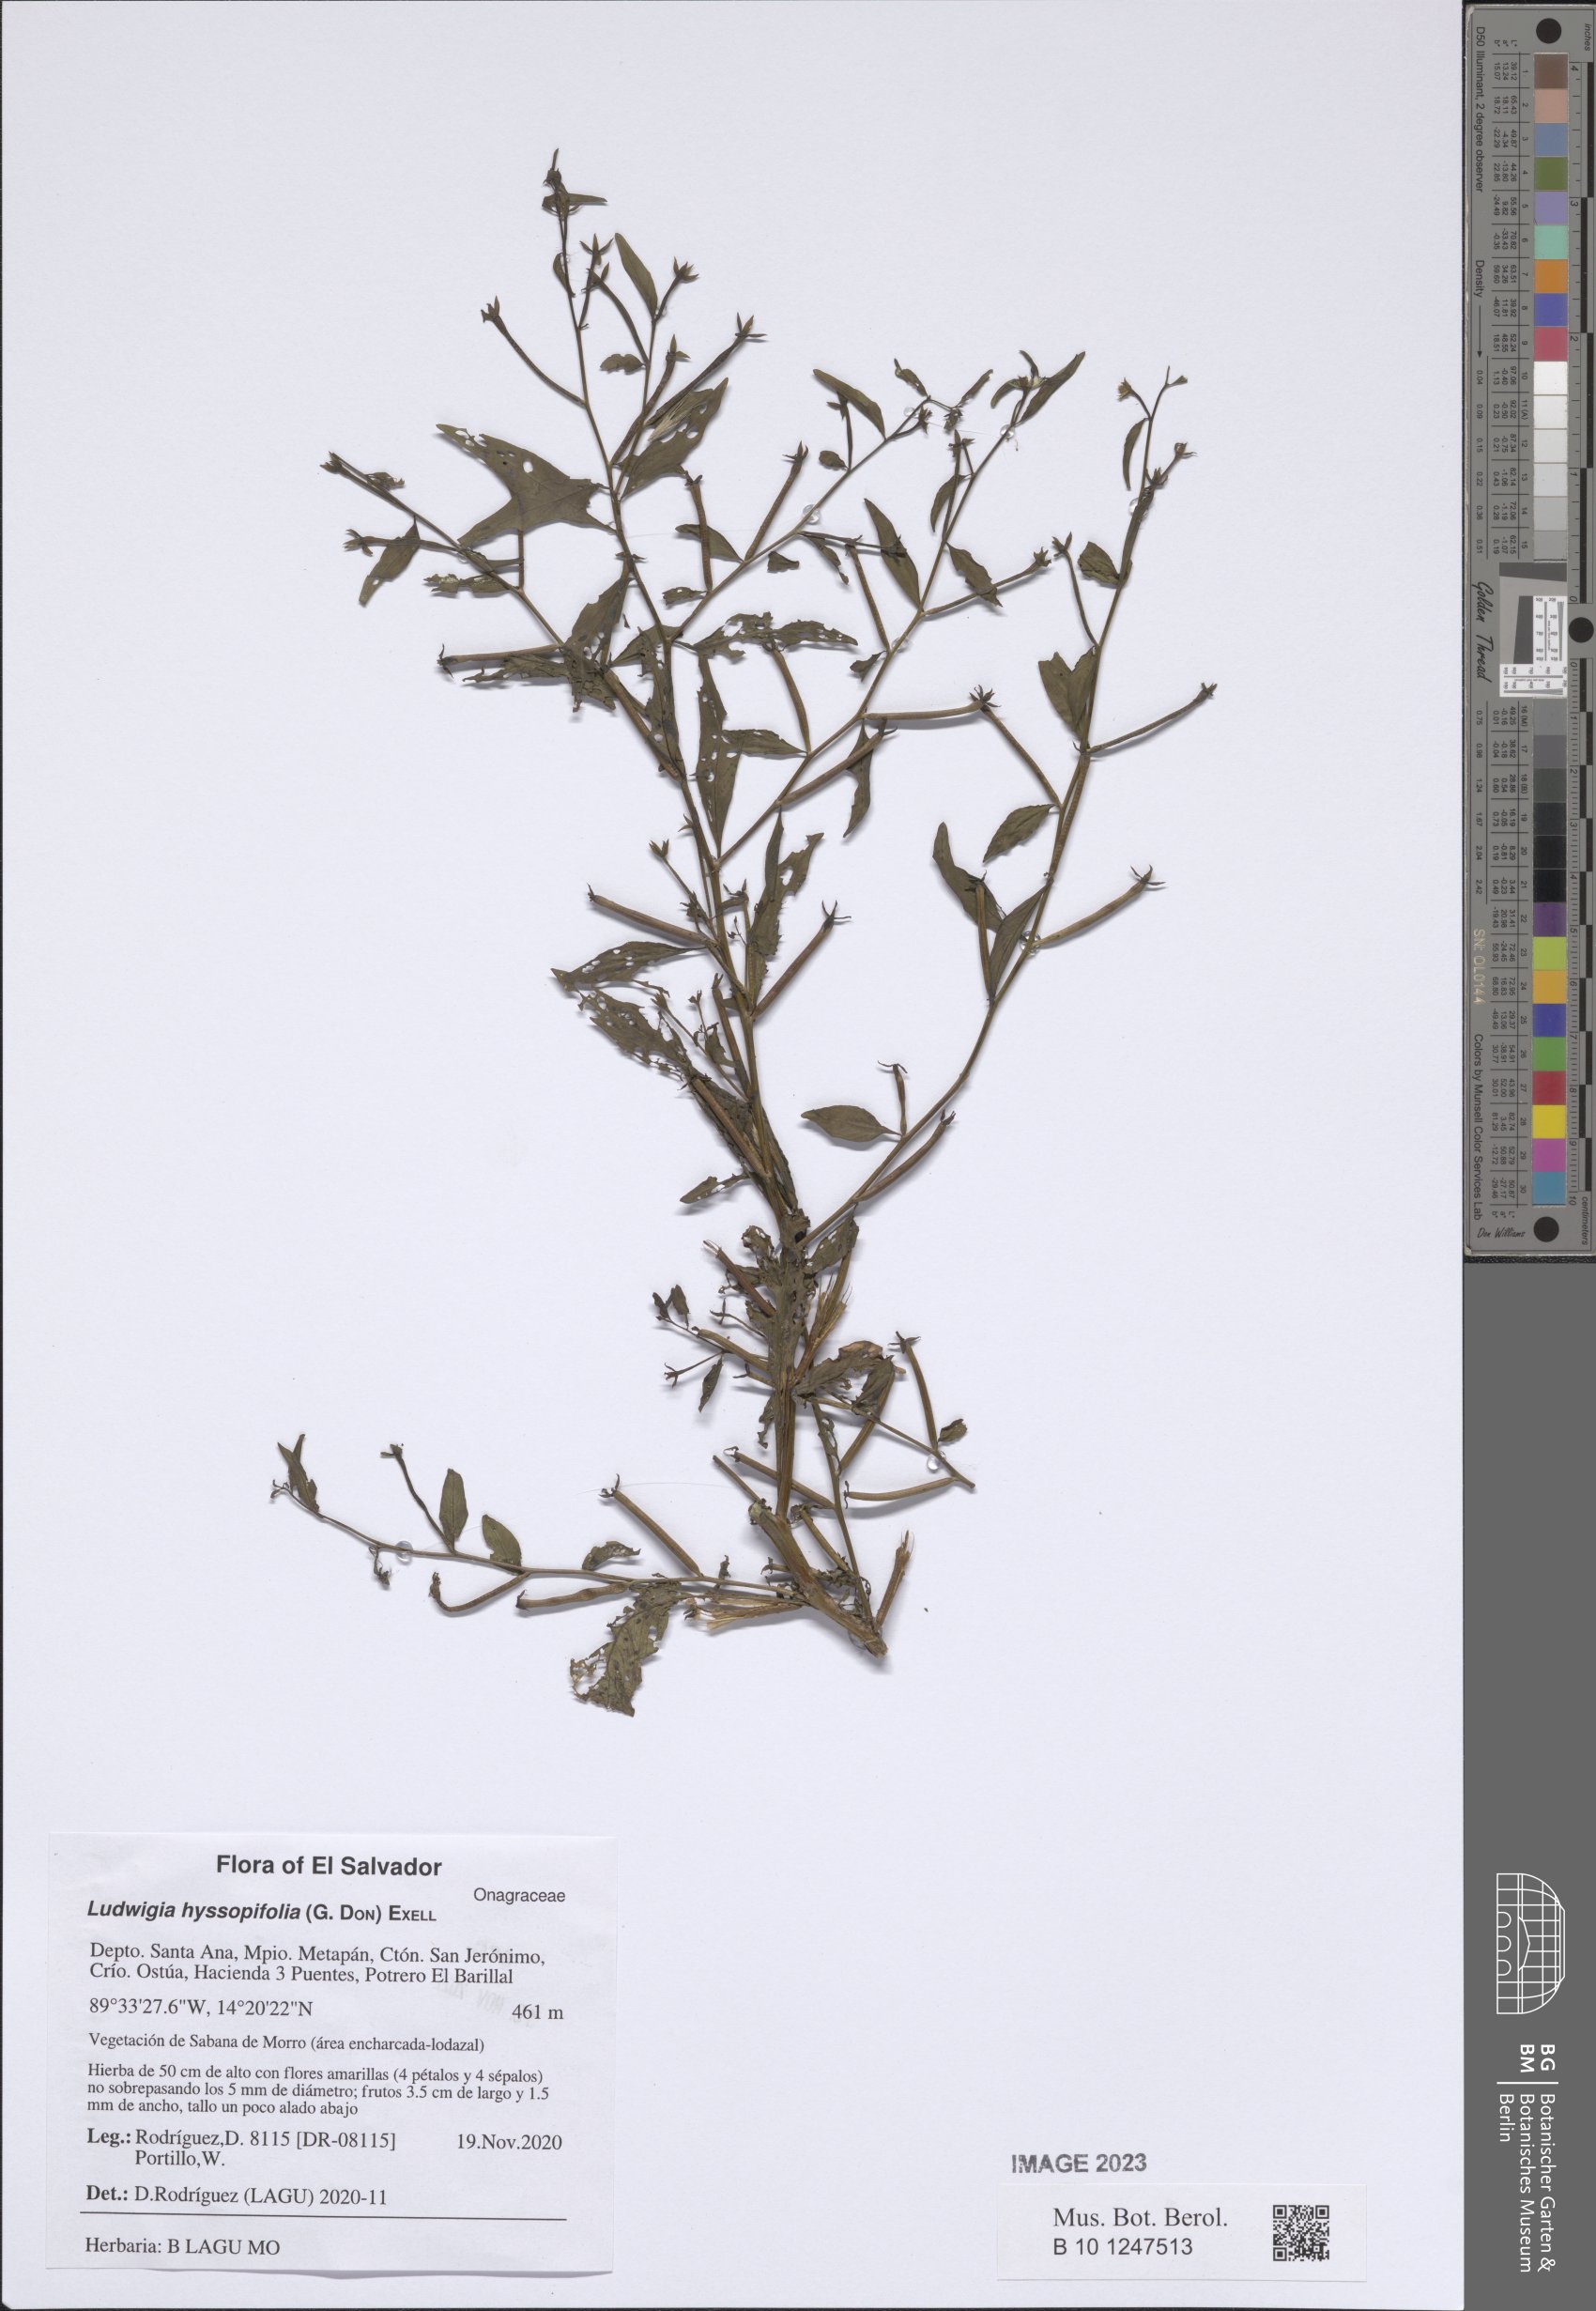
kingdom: Plantae
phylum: Tracheophyta
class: Magnoliopsida
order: Myrtales
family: Onagraceae
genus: Ludwigia
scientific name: Ludwigia hyssopifolia
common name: Linear leaf water primrose
